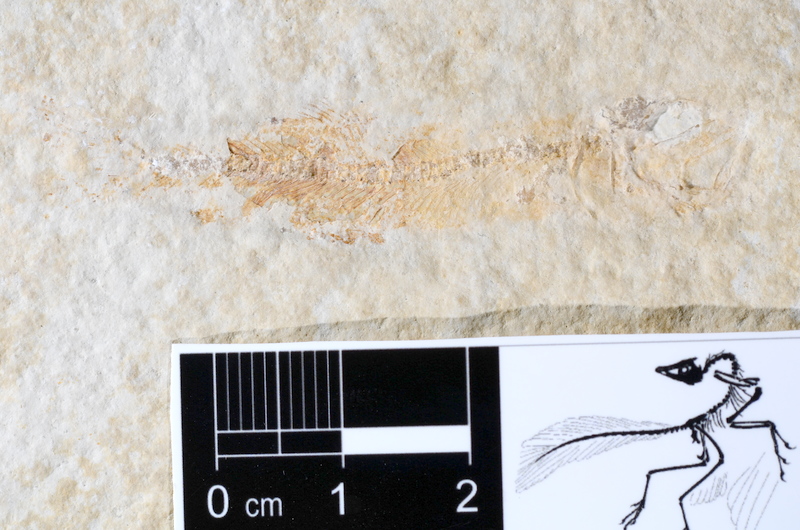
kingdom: Animalia
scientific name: Animalia
